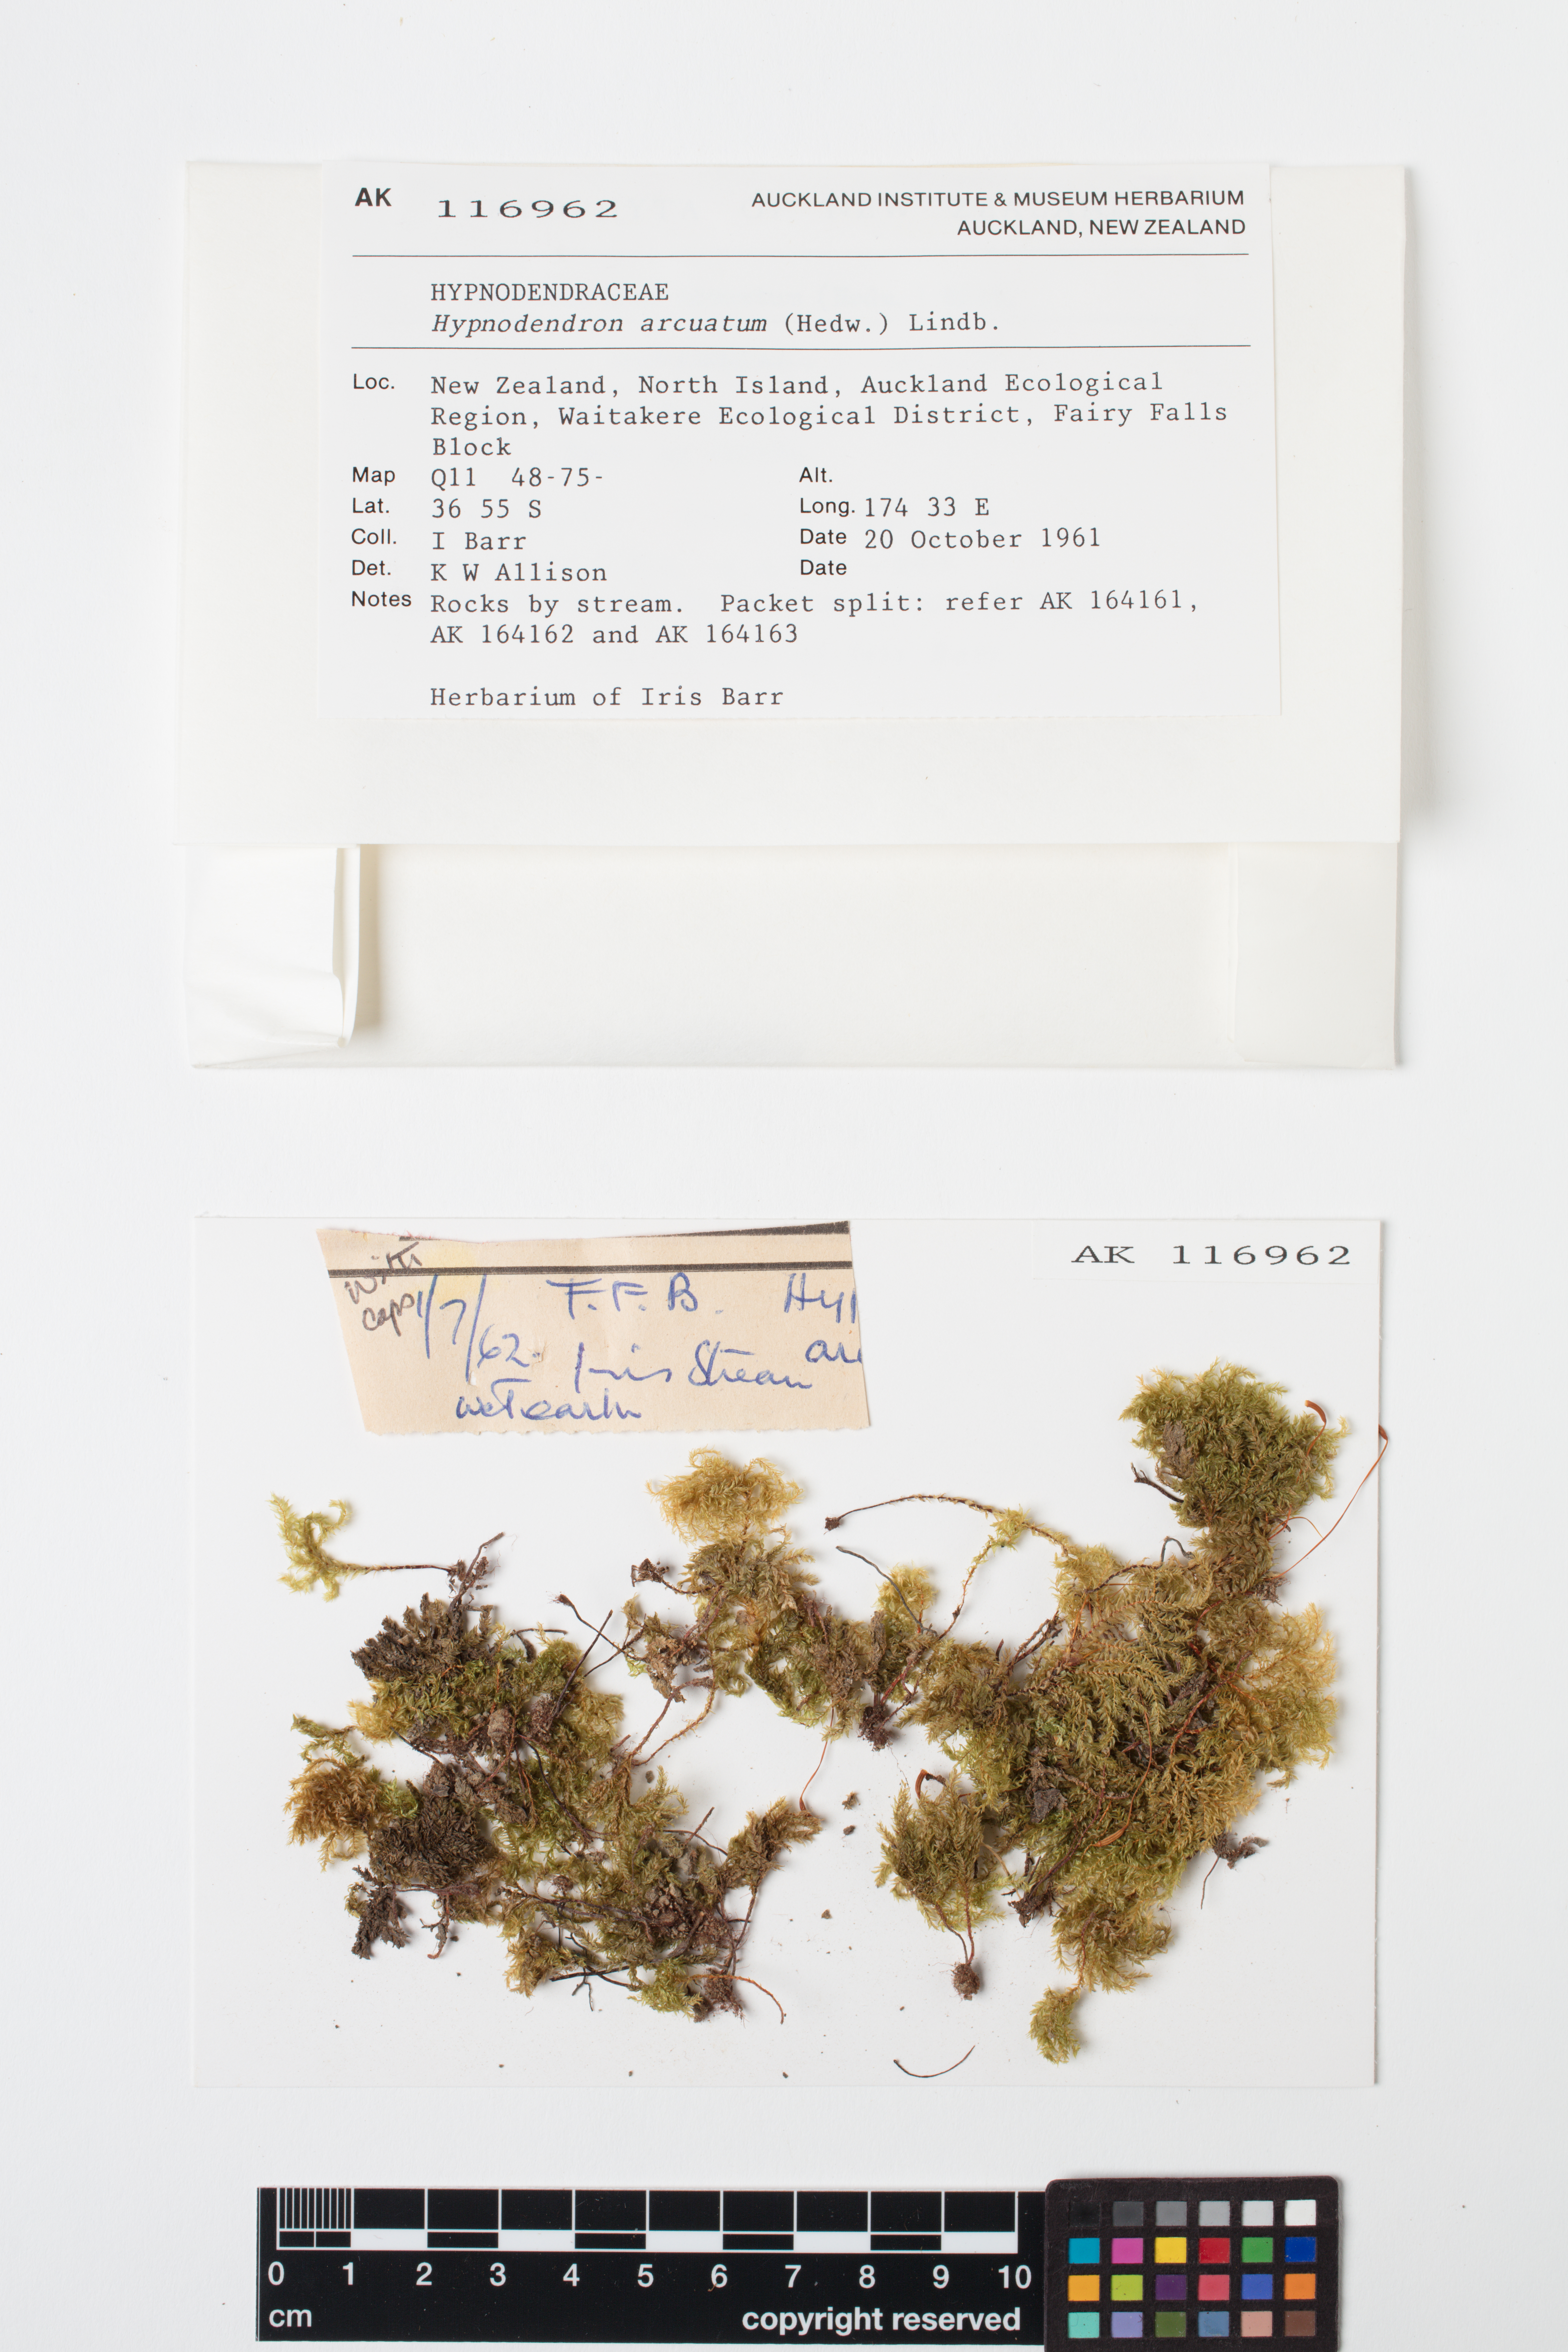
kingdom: Plantae
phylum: Bryophyta
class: Bryopsida
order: Hypnodendrales
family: Spiridentaceae
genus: Hypnodendron
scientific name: Hypnodendron arcuatum
